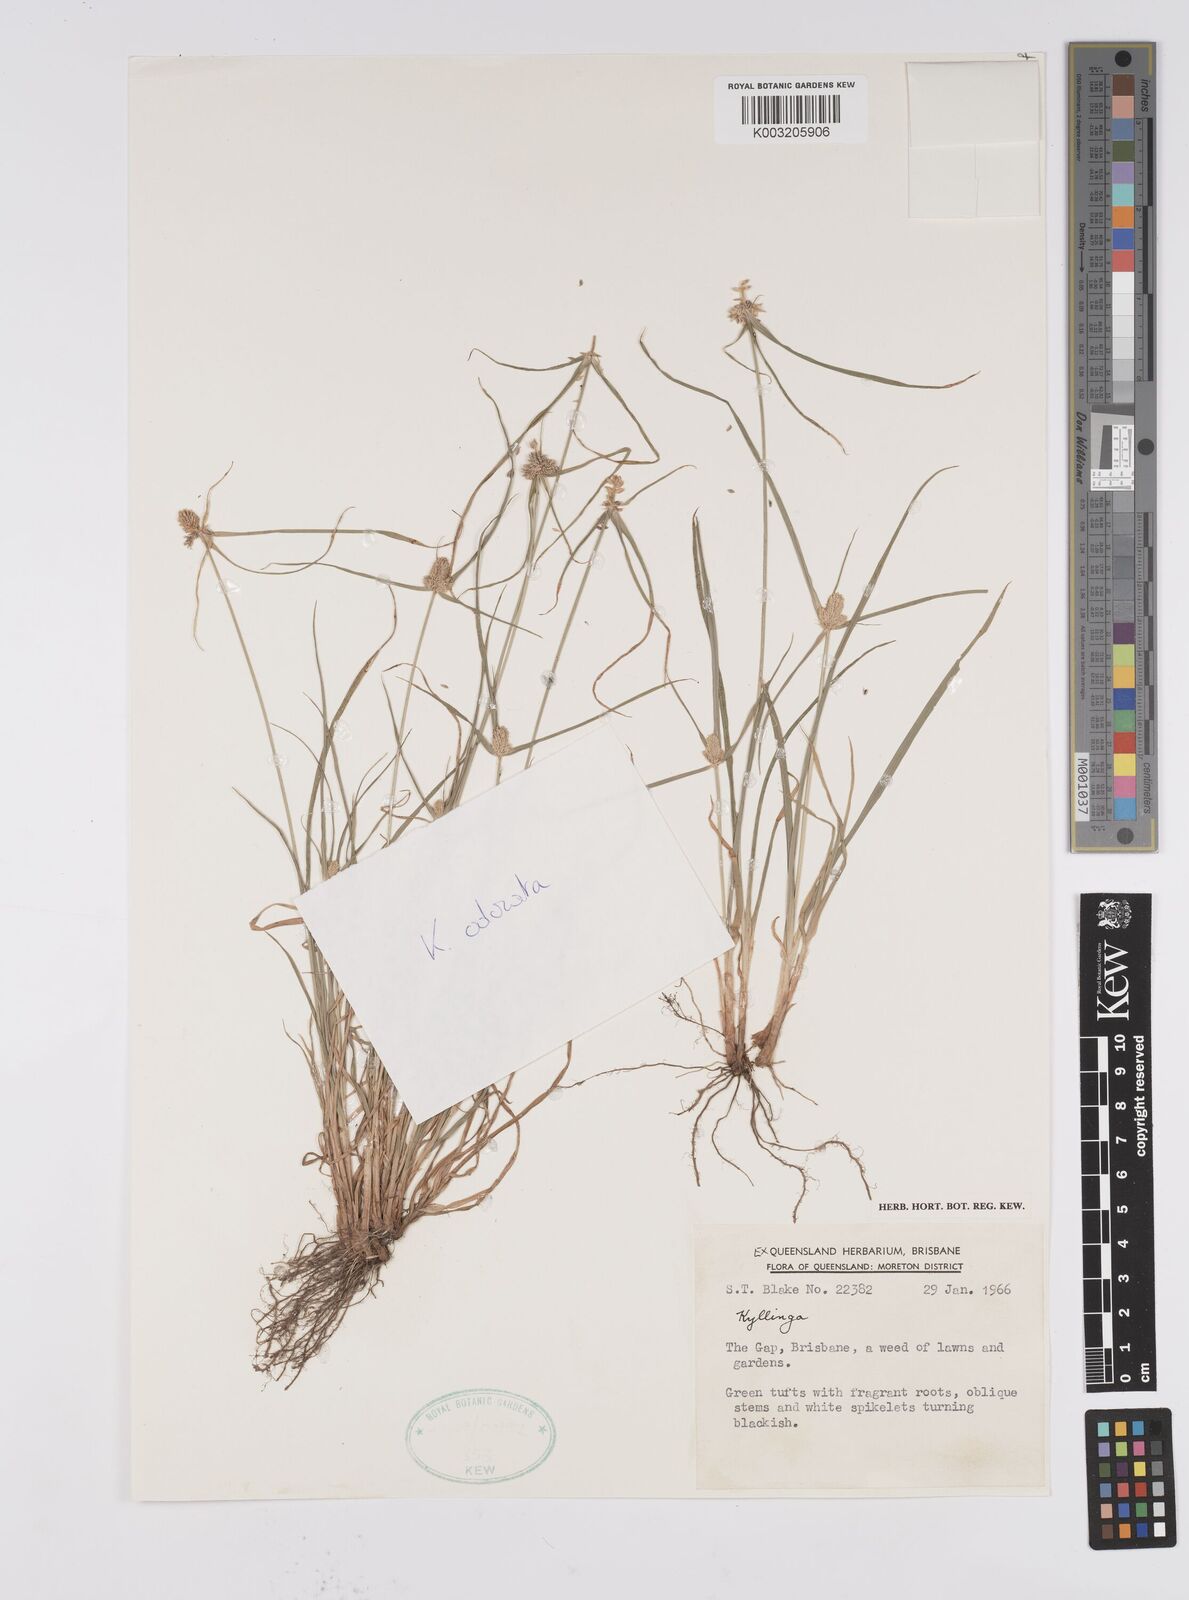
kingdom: Plantae
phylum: Tracheophyta
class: Liliopsida
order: Poales
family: Cyperaceae
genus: Cyperus
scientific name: Cyperus melanospermus
